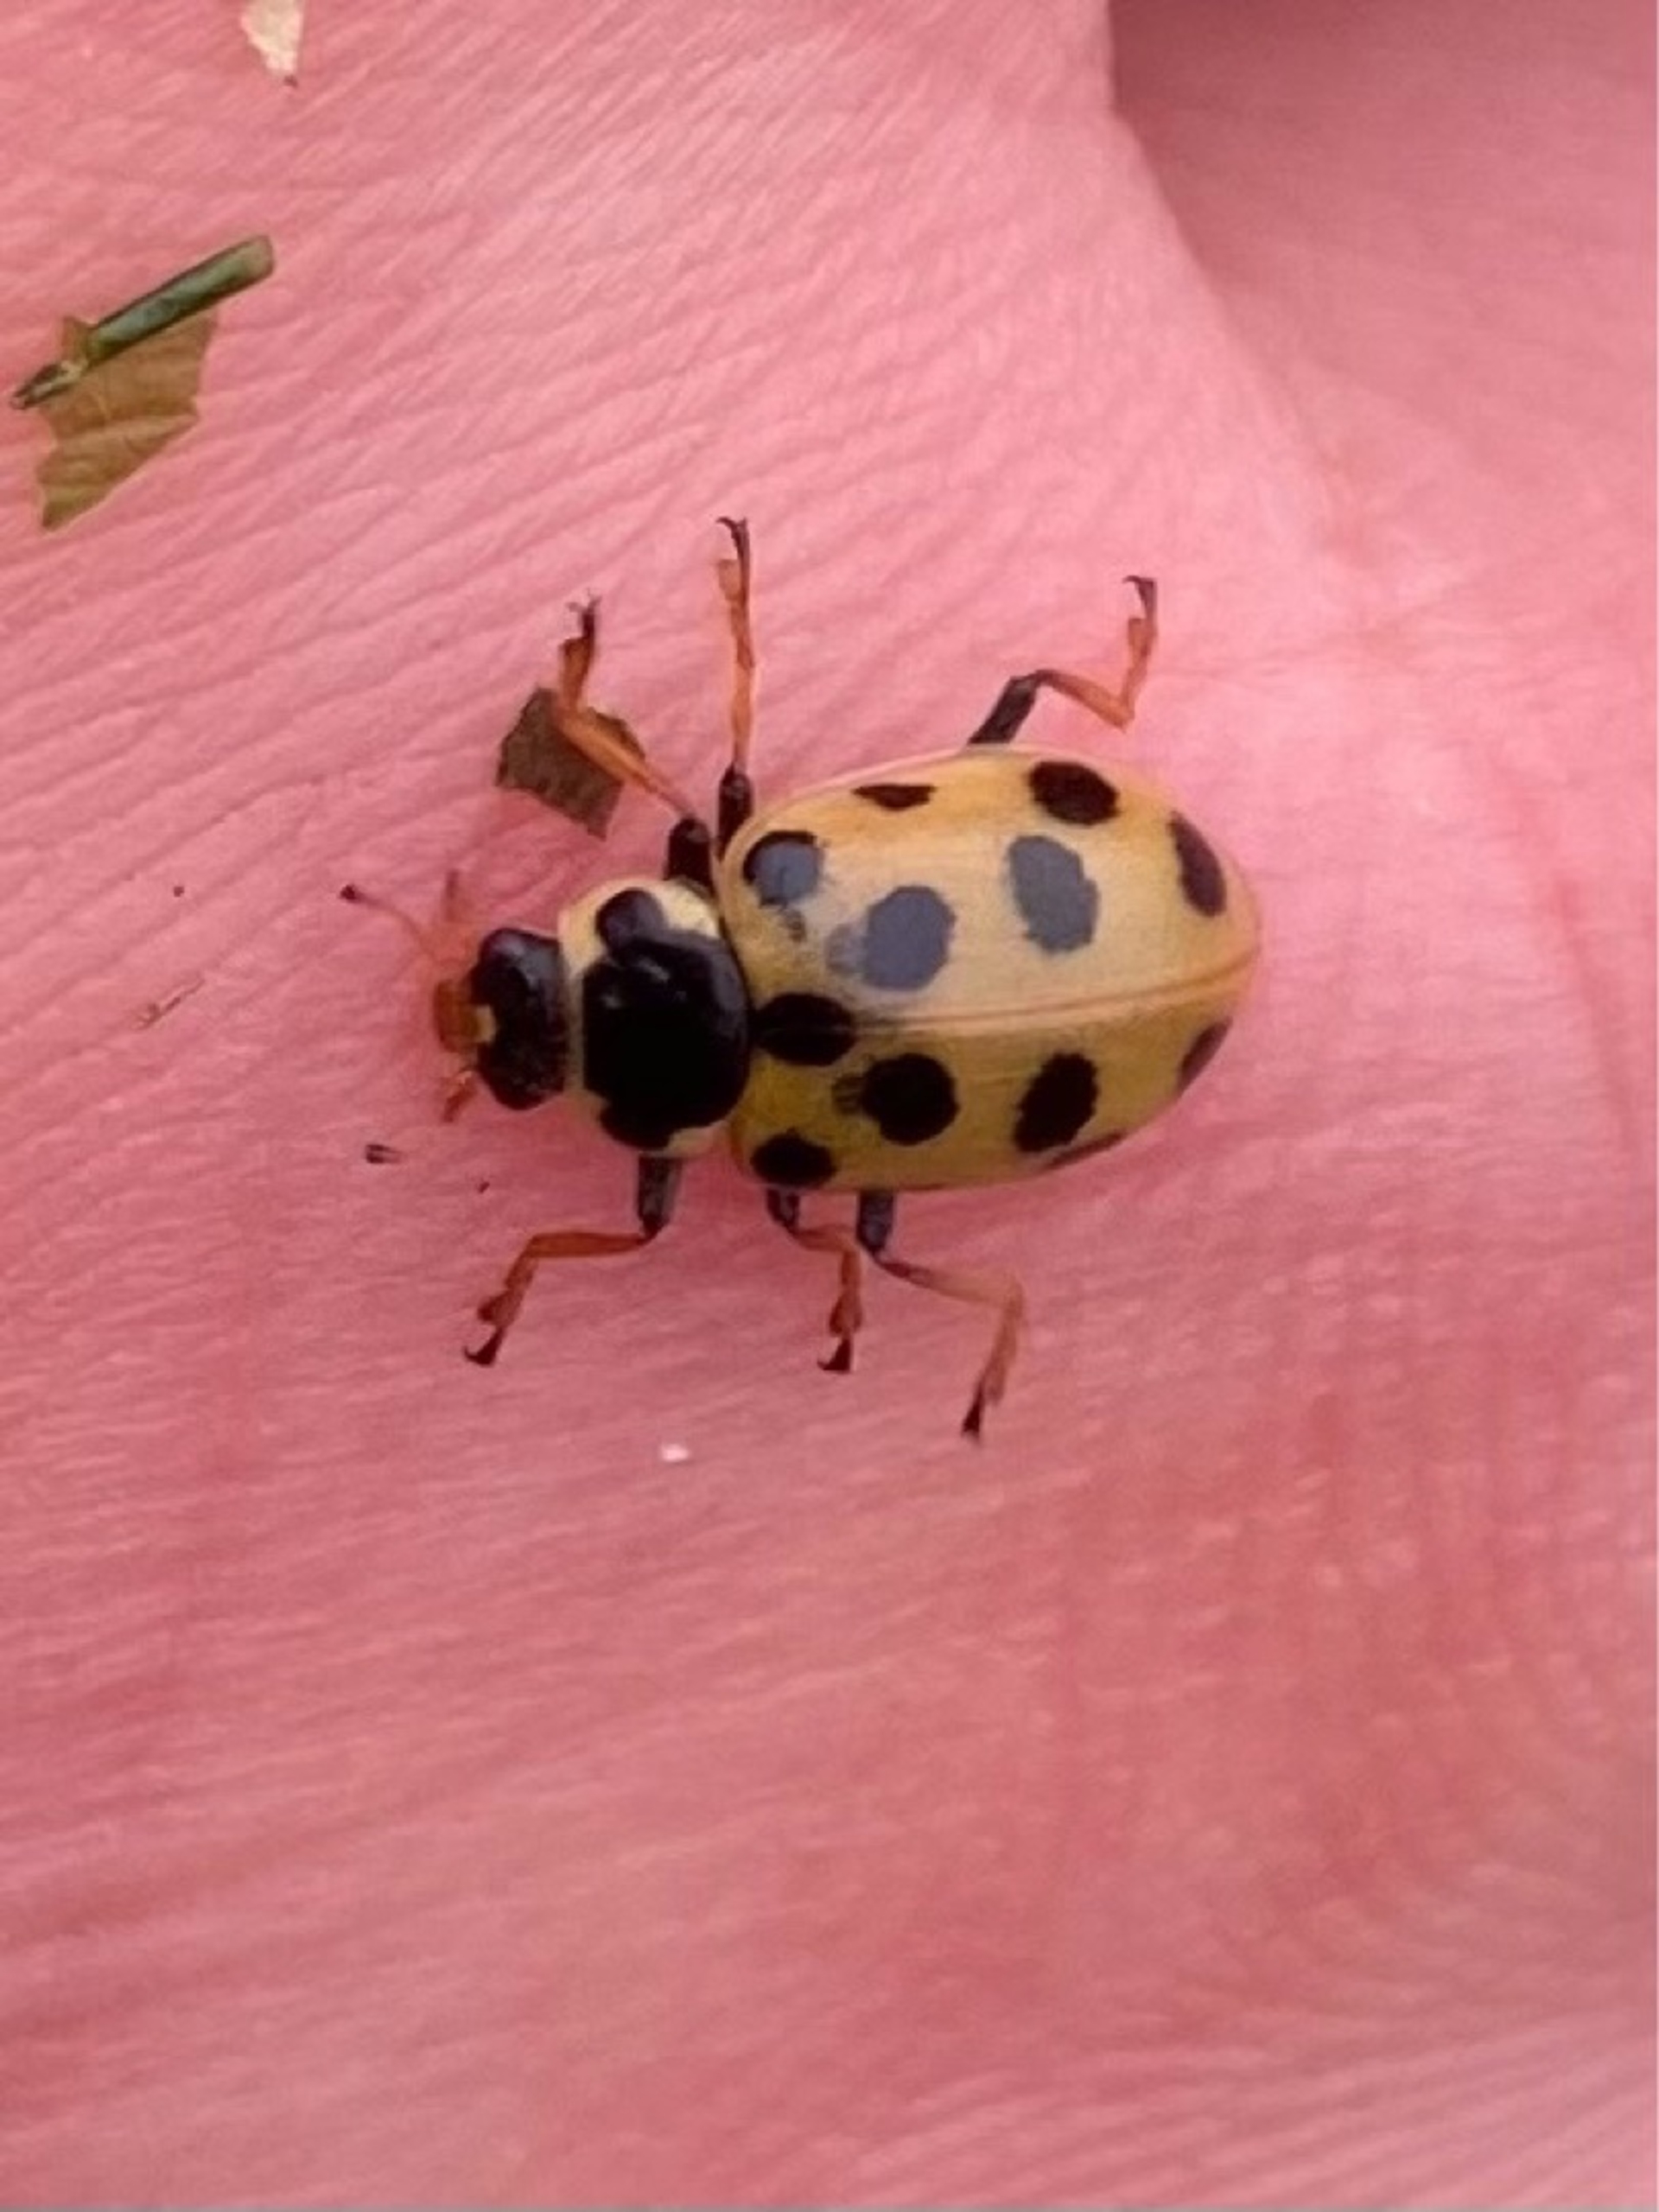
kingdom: Animalia
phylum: Arthropoda
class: Insecta
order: Coleoptera
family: Coccinellidae
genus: Hippodamia
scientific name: Hippodamia tredecimpunctata
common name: Trettenplettet mariehøne
